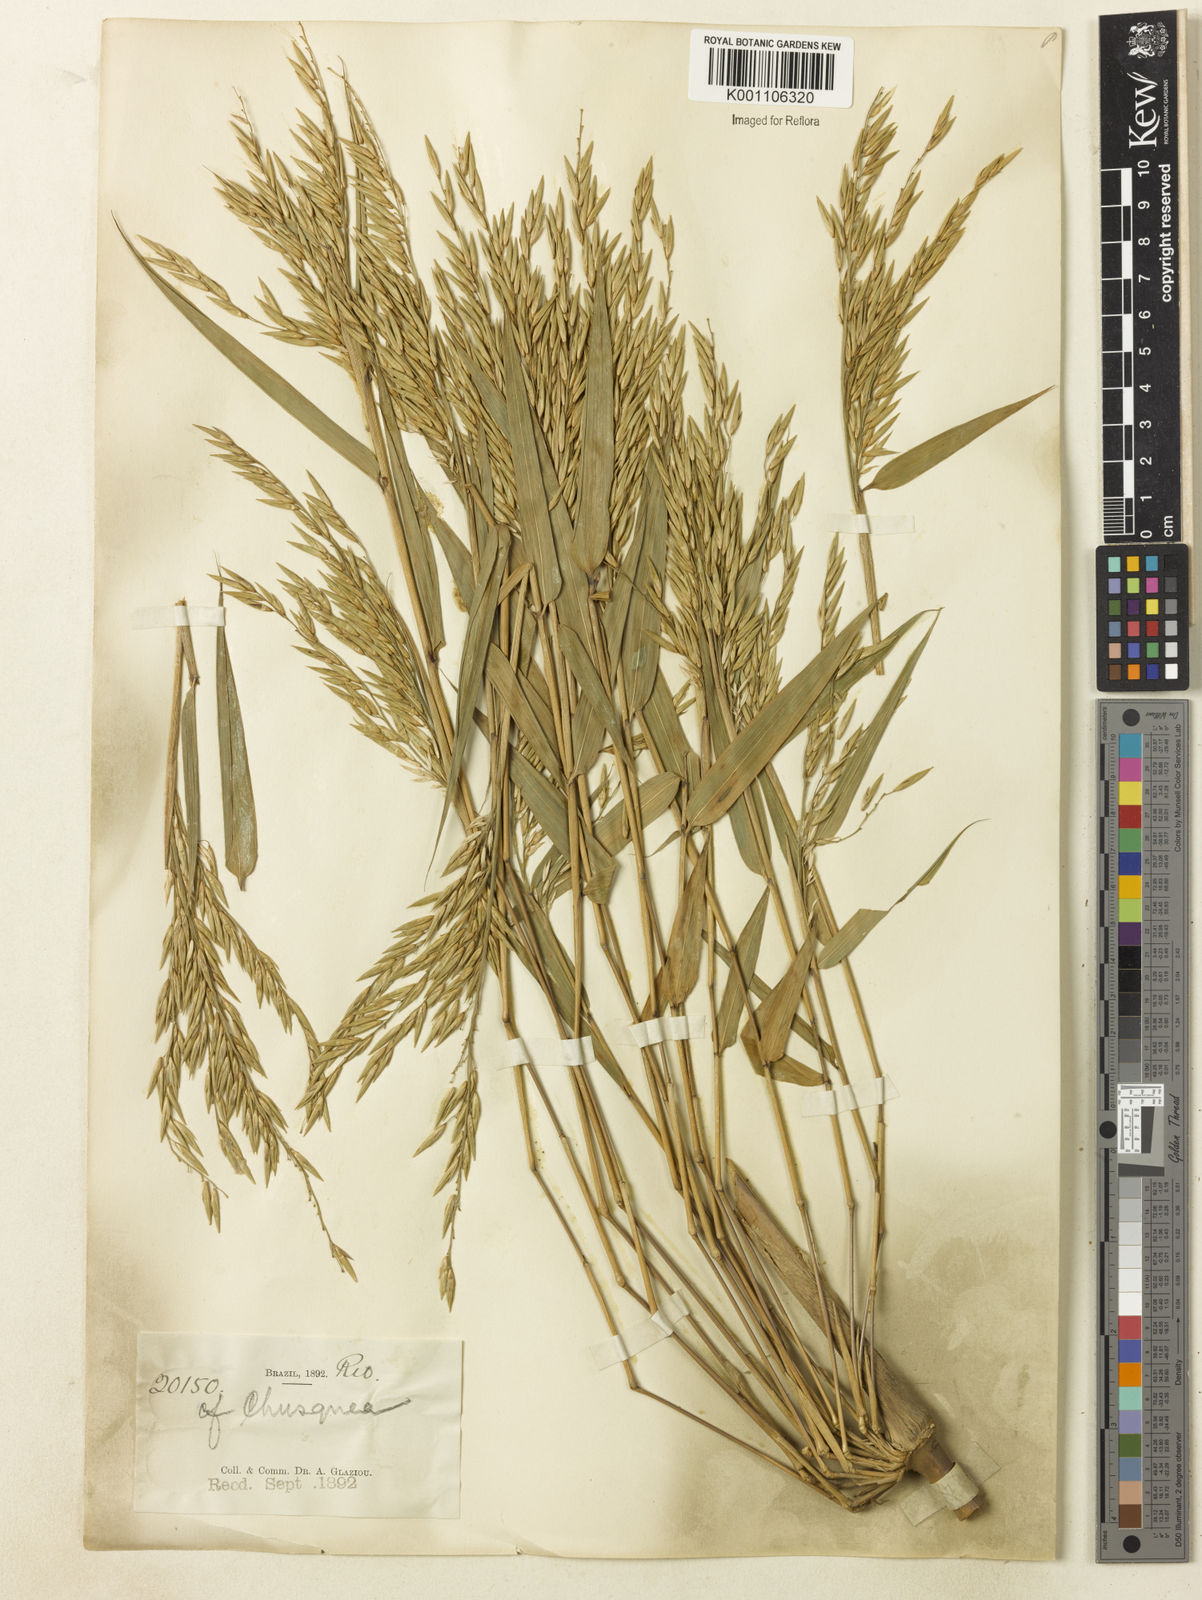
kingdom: Plantae
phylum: Tracheophyta
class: Liliopsida
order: Poales
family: Poaceae
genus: Chusquea
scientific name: Chusquea
